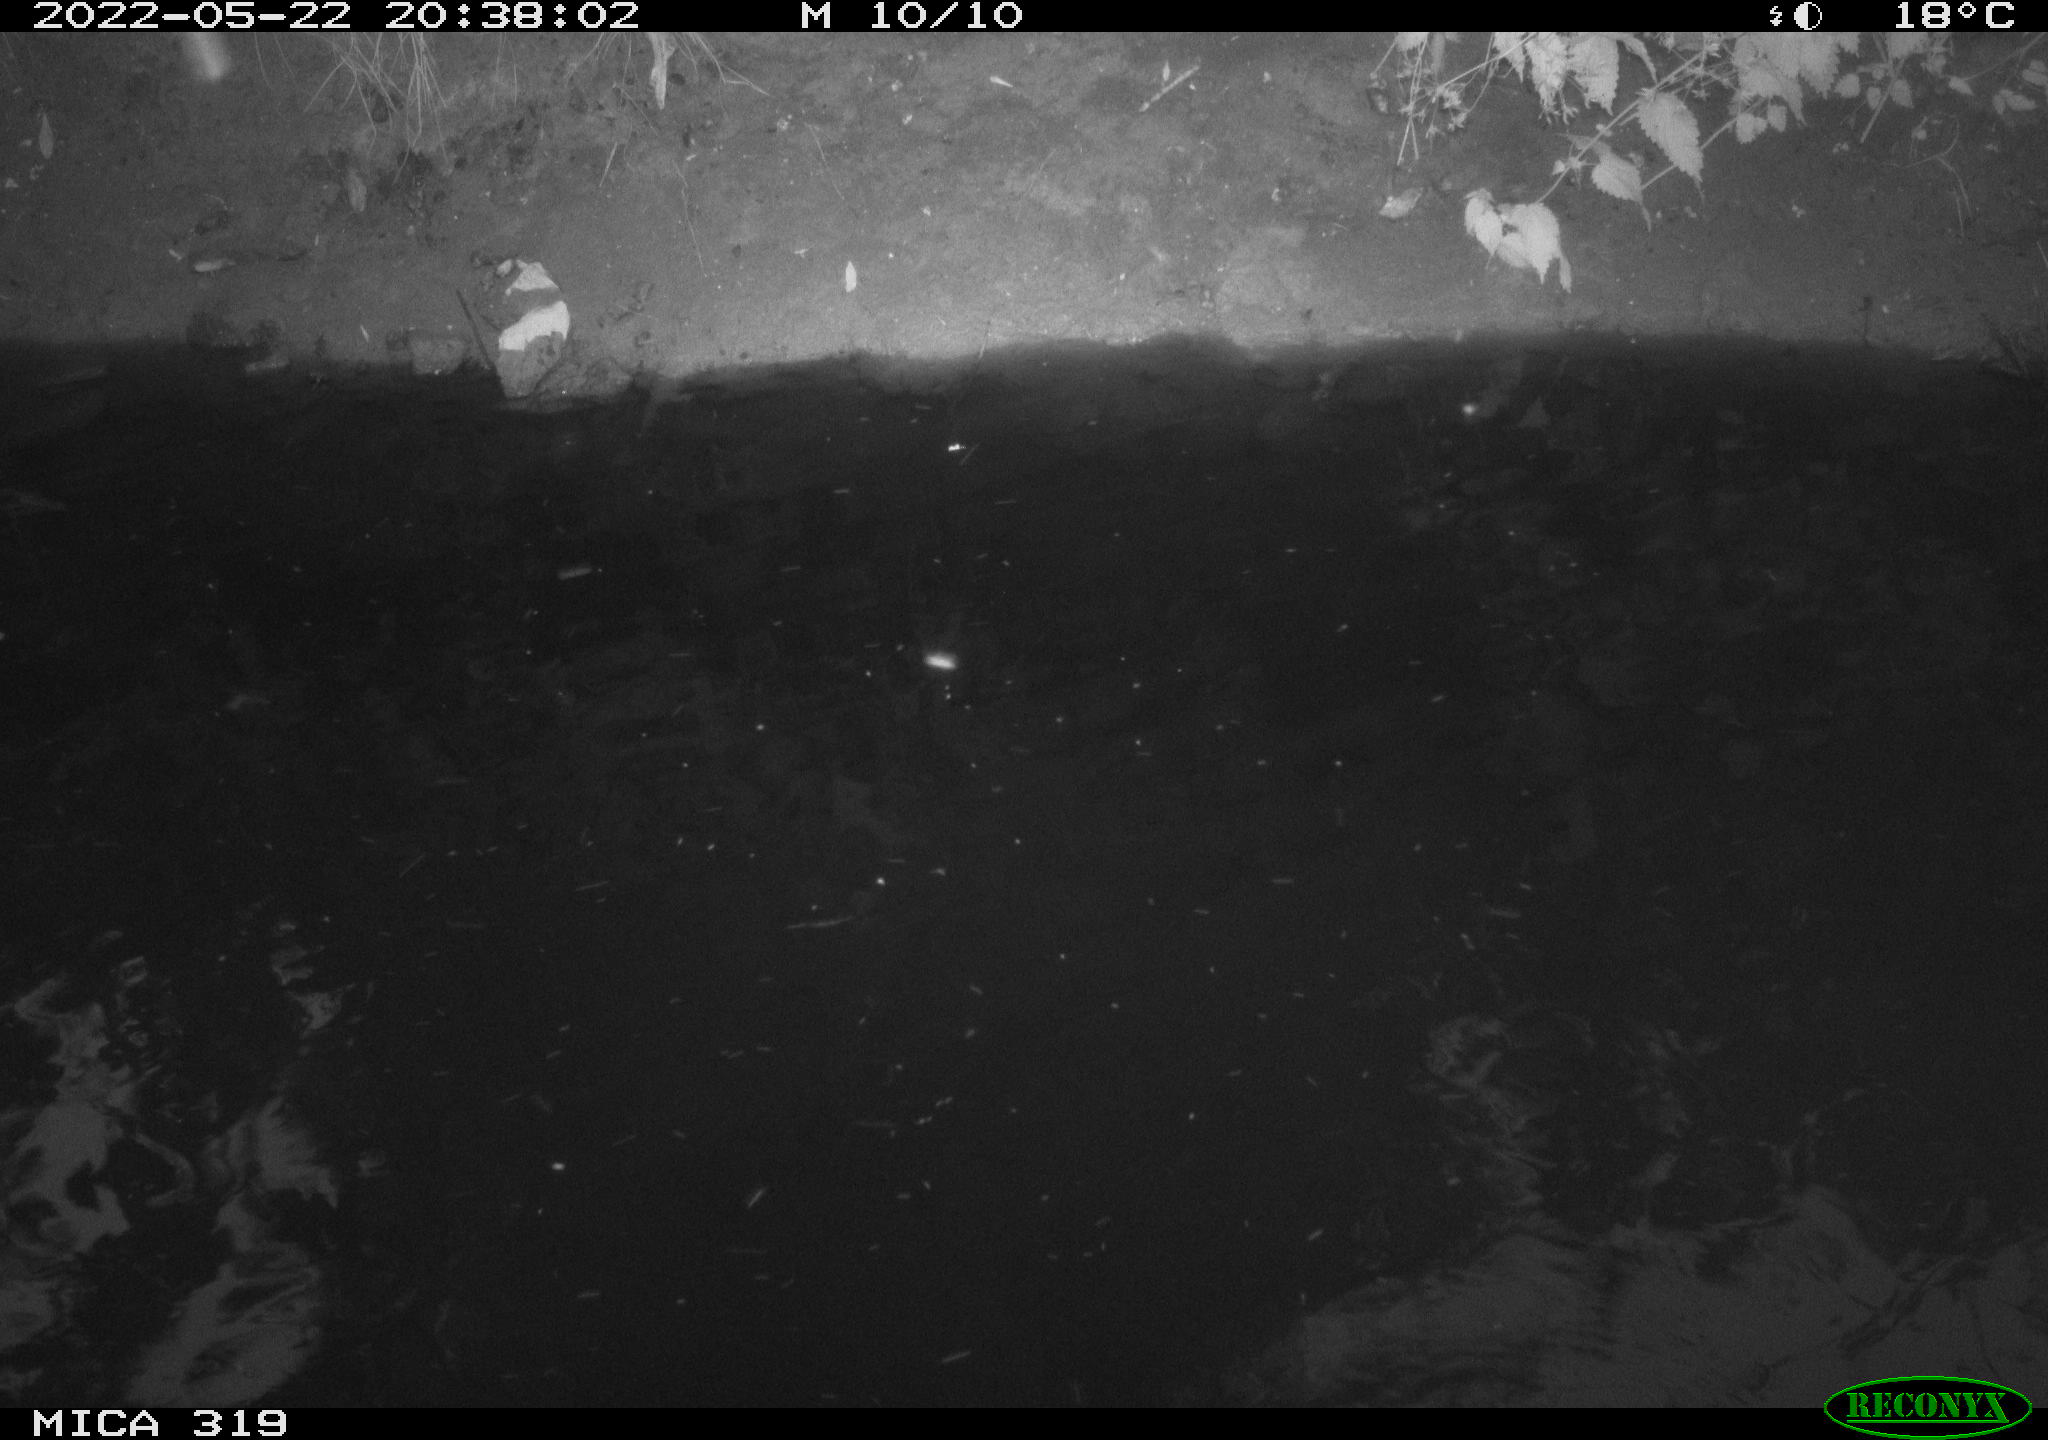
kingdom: Animalia
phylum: Chordata
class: Aves
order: Anseriformes
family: Anatidae
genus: Anas
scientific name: Anas
